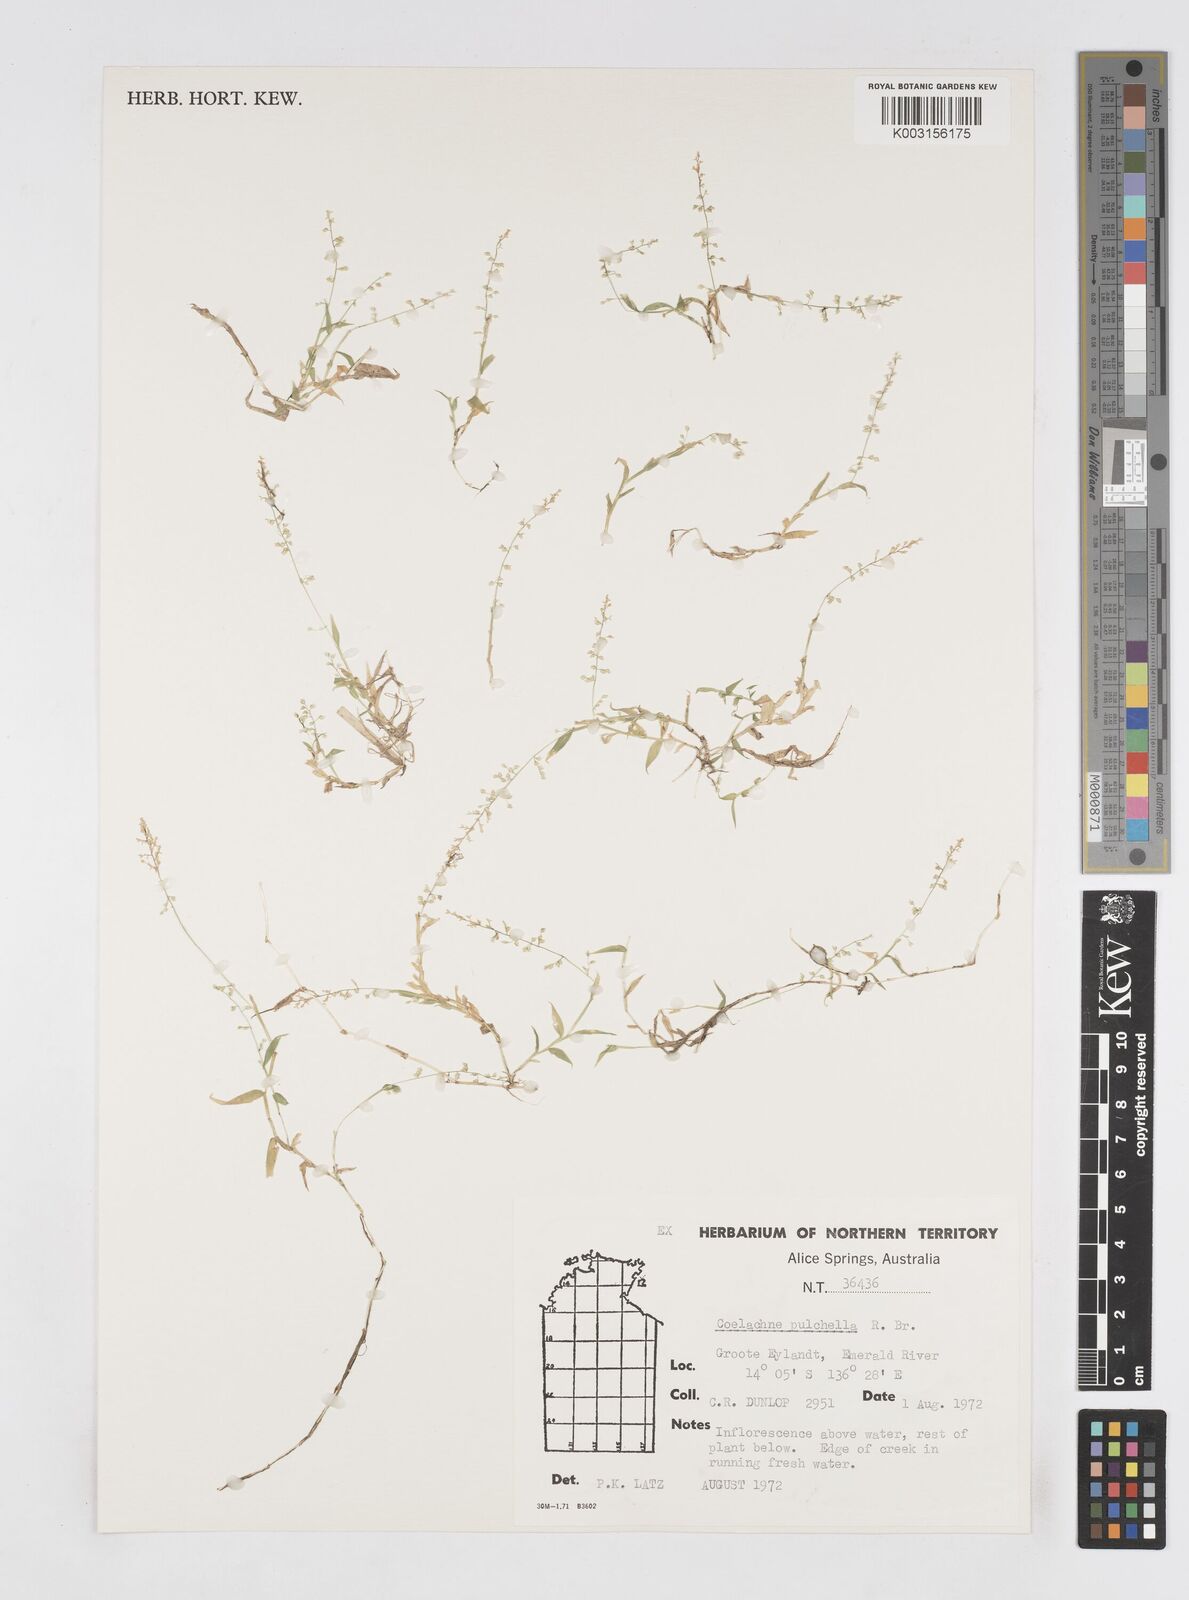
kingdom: Plantae
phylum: Tracheophyta
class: Liliopsida
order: Poales
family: Poaceae
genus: Coelachne
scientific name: Coelachne pulchella
